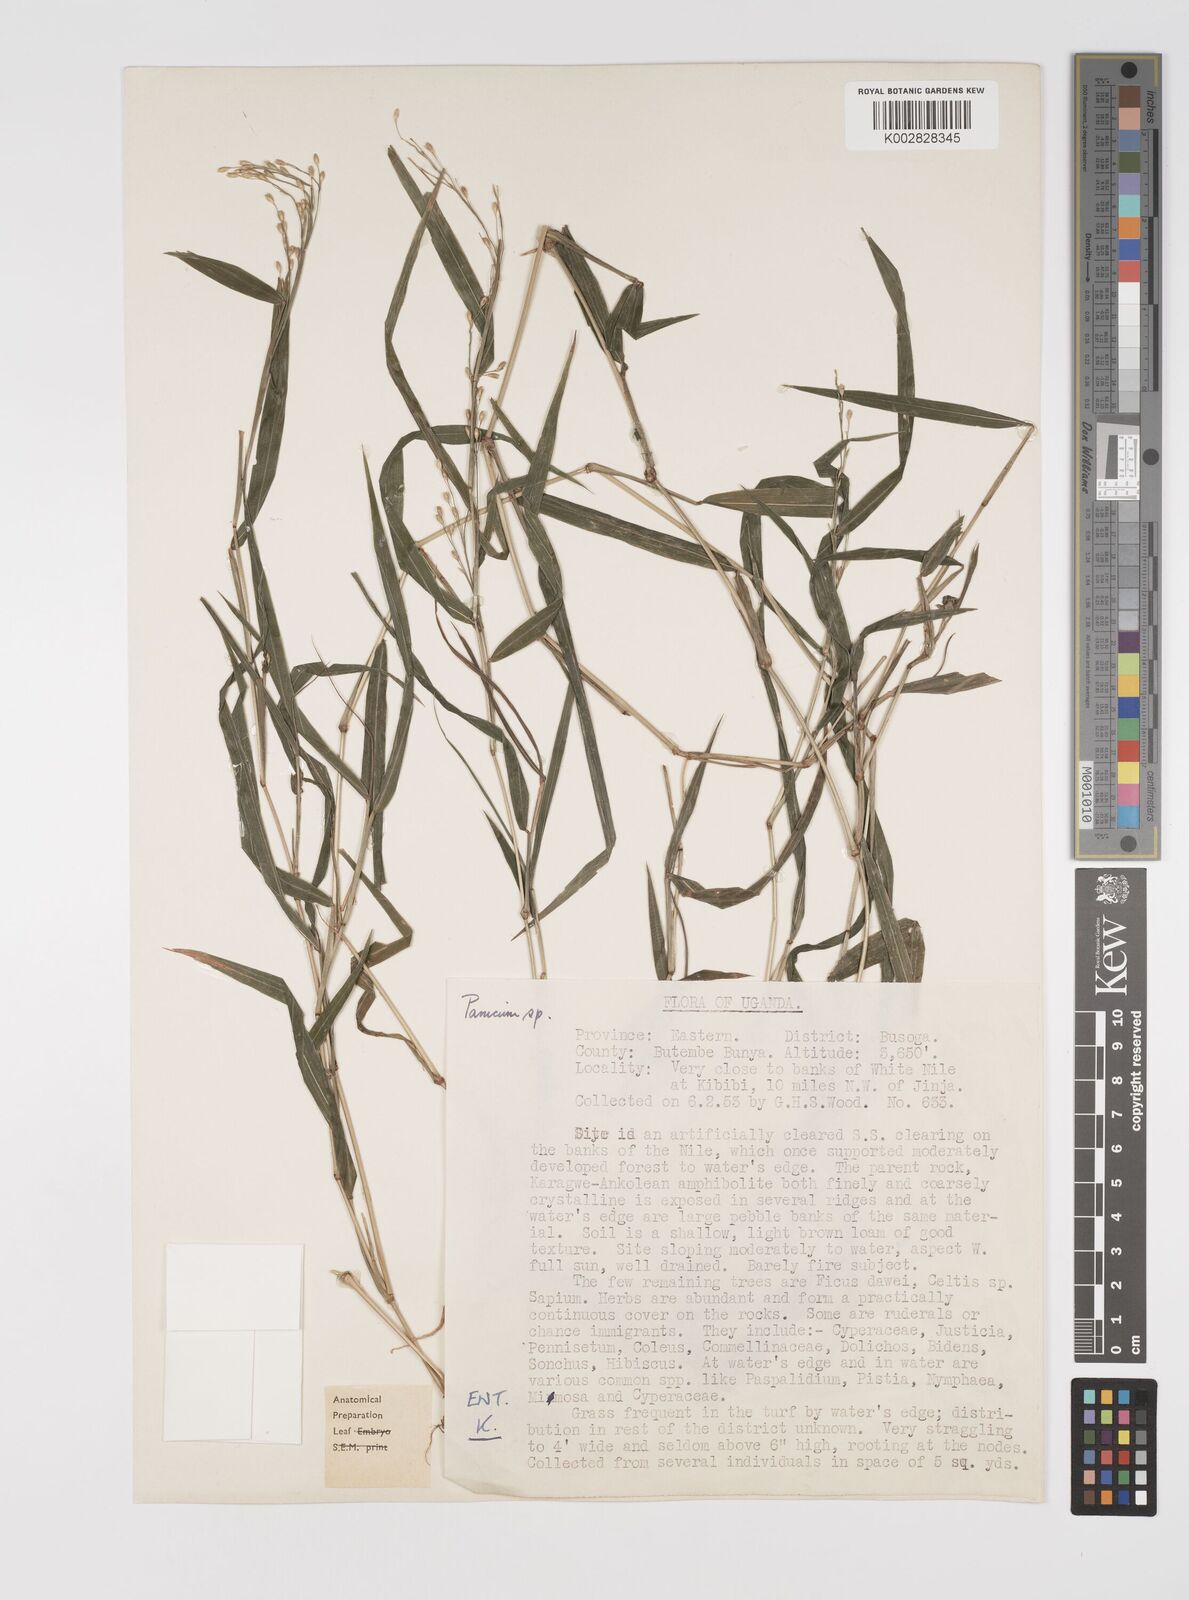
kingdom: Plantae
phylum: Tracheophyta
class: Liliopsida
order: Poales
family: Poaceae
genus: Acroceras
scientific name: Acroceras attenuatum
